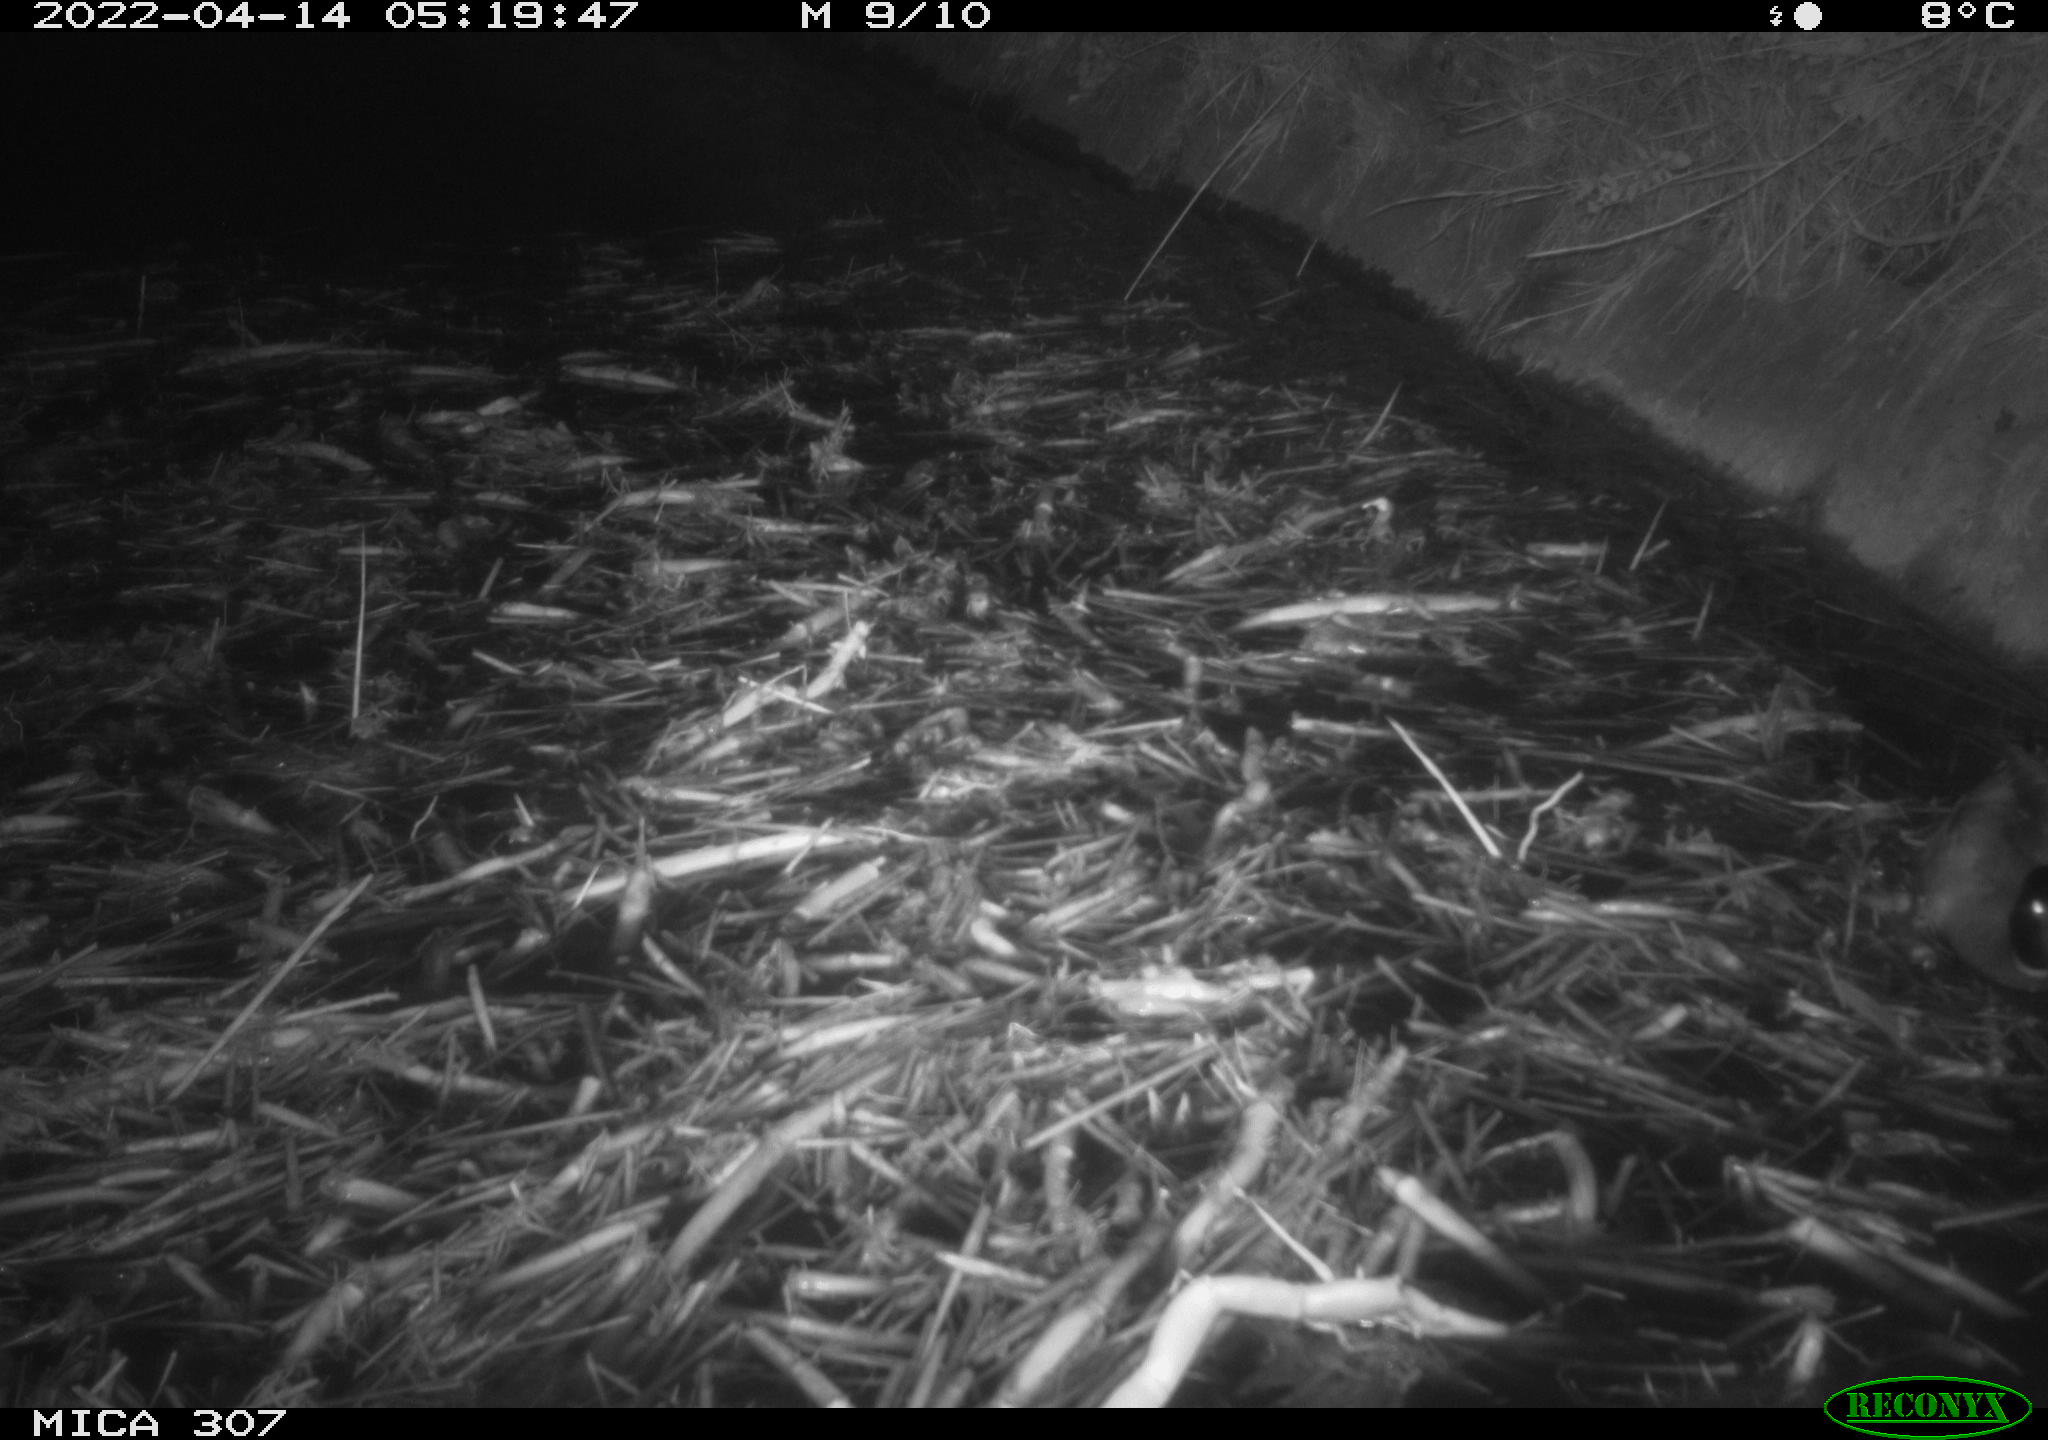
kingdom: Animalia
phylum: Chordata
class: Aves
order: Anseriformes
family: Anatidae
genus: Anas
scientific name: Anas platyrhynchos
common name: Mallard
